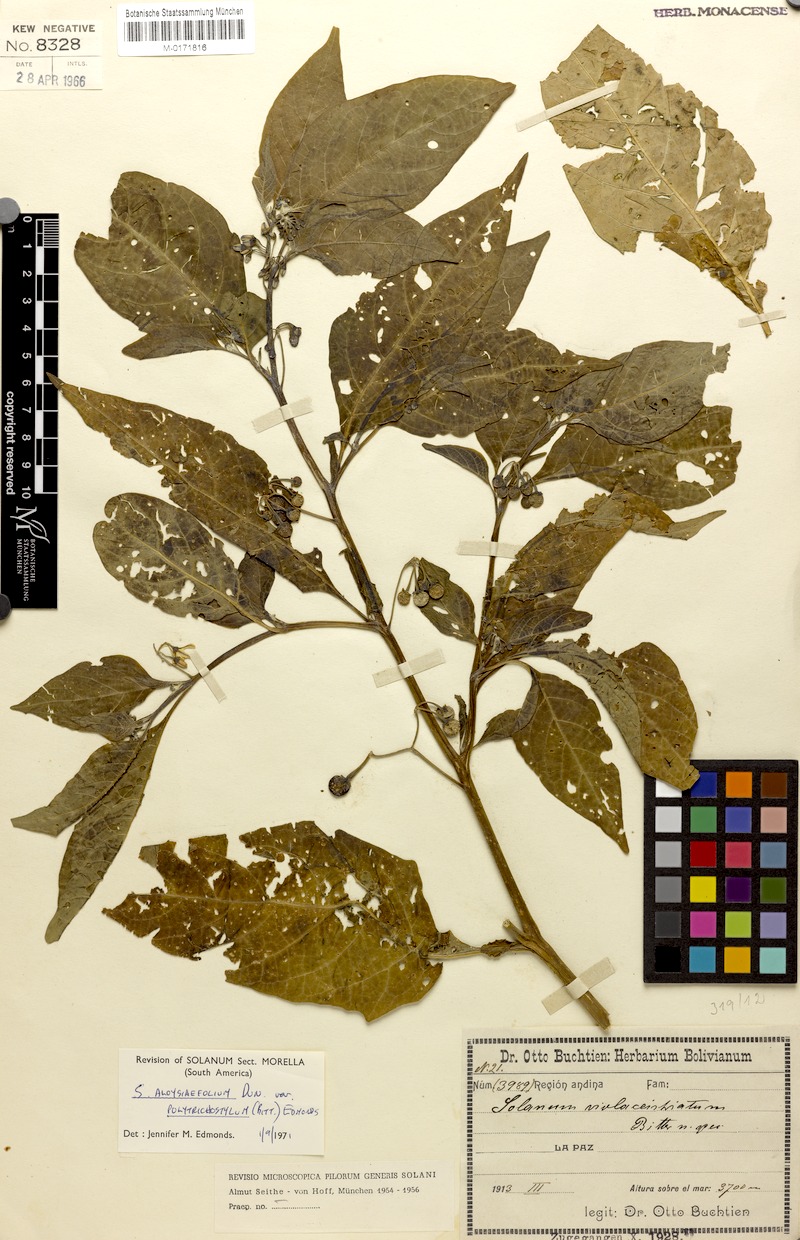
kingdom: Plantae
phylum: Tracheophyta
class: Magnoliopsida
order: Solanales
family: Solanaceae
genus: Solanum
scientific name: Solanum polytrichostylum
